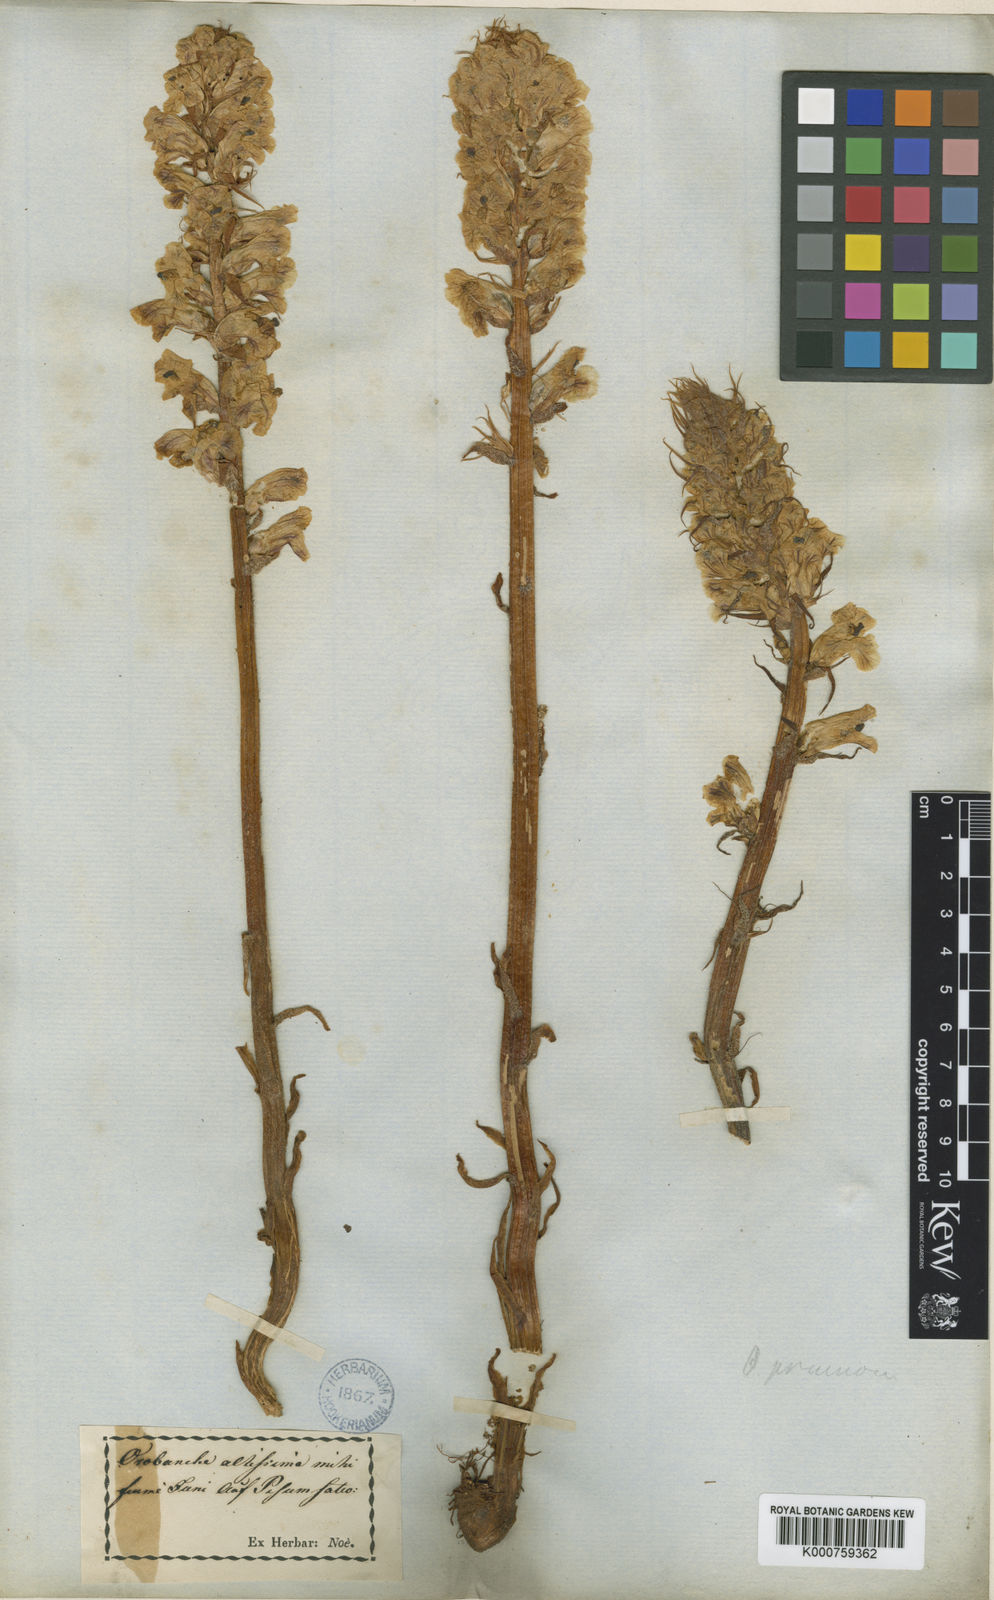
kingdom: Plantae
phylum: Tracheophyta
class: Magnoliopsida
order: Lamiales
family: Gesneriaceae
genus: Codonanthe
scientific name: Codonanthe gracilis
